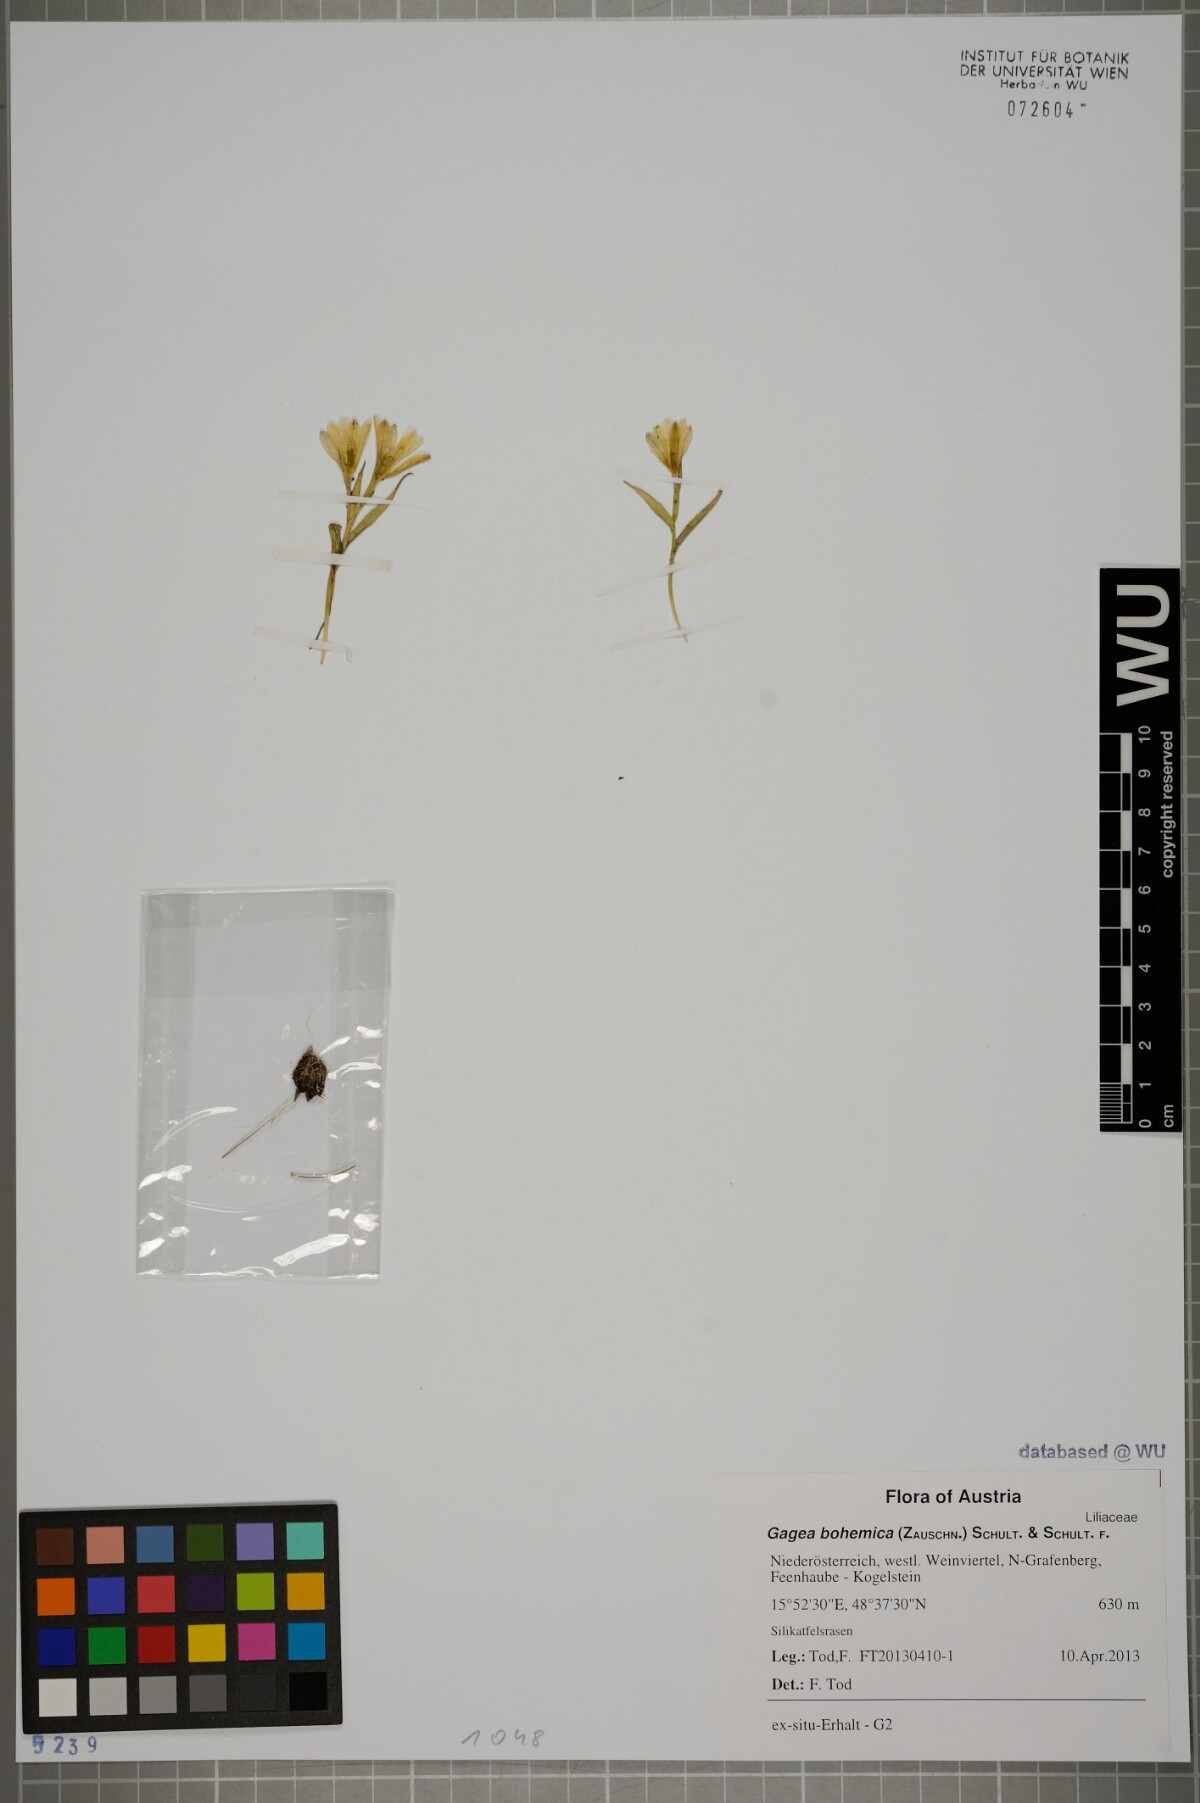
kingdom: Plantae
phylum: Tracheophyta
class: Liliopsida
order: Liliales
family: Liliaceae
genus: Gagea
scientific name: Gagea bohemica
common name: Early star-of-bethlehem
